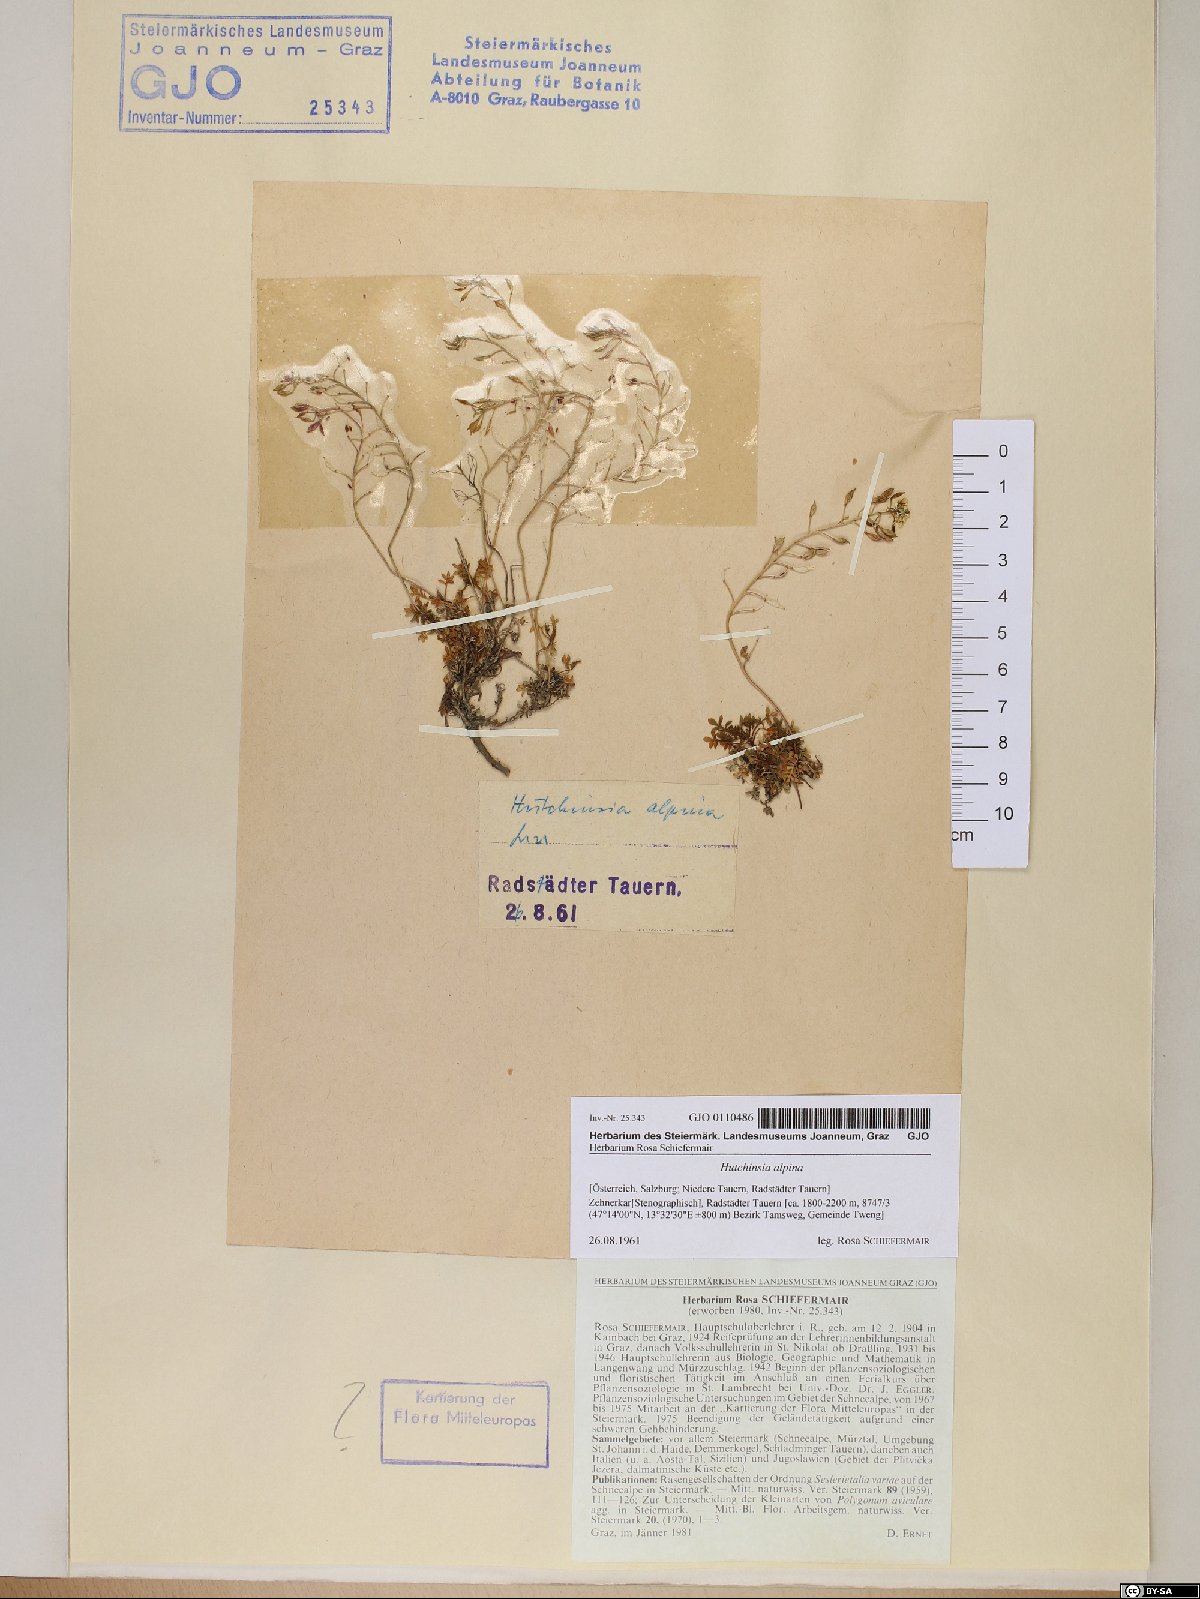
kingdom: Plantae
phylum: Tracheophyta
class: Magnoliopsida
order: Brassicales
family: Brassicaceae
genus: Hornungia
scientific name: Hornungia alpina
